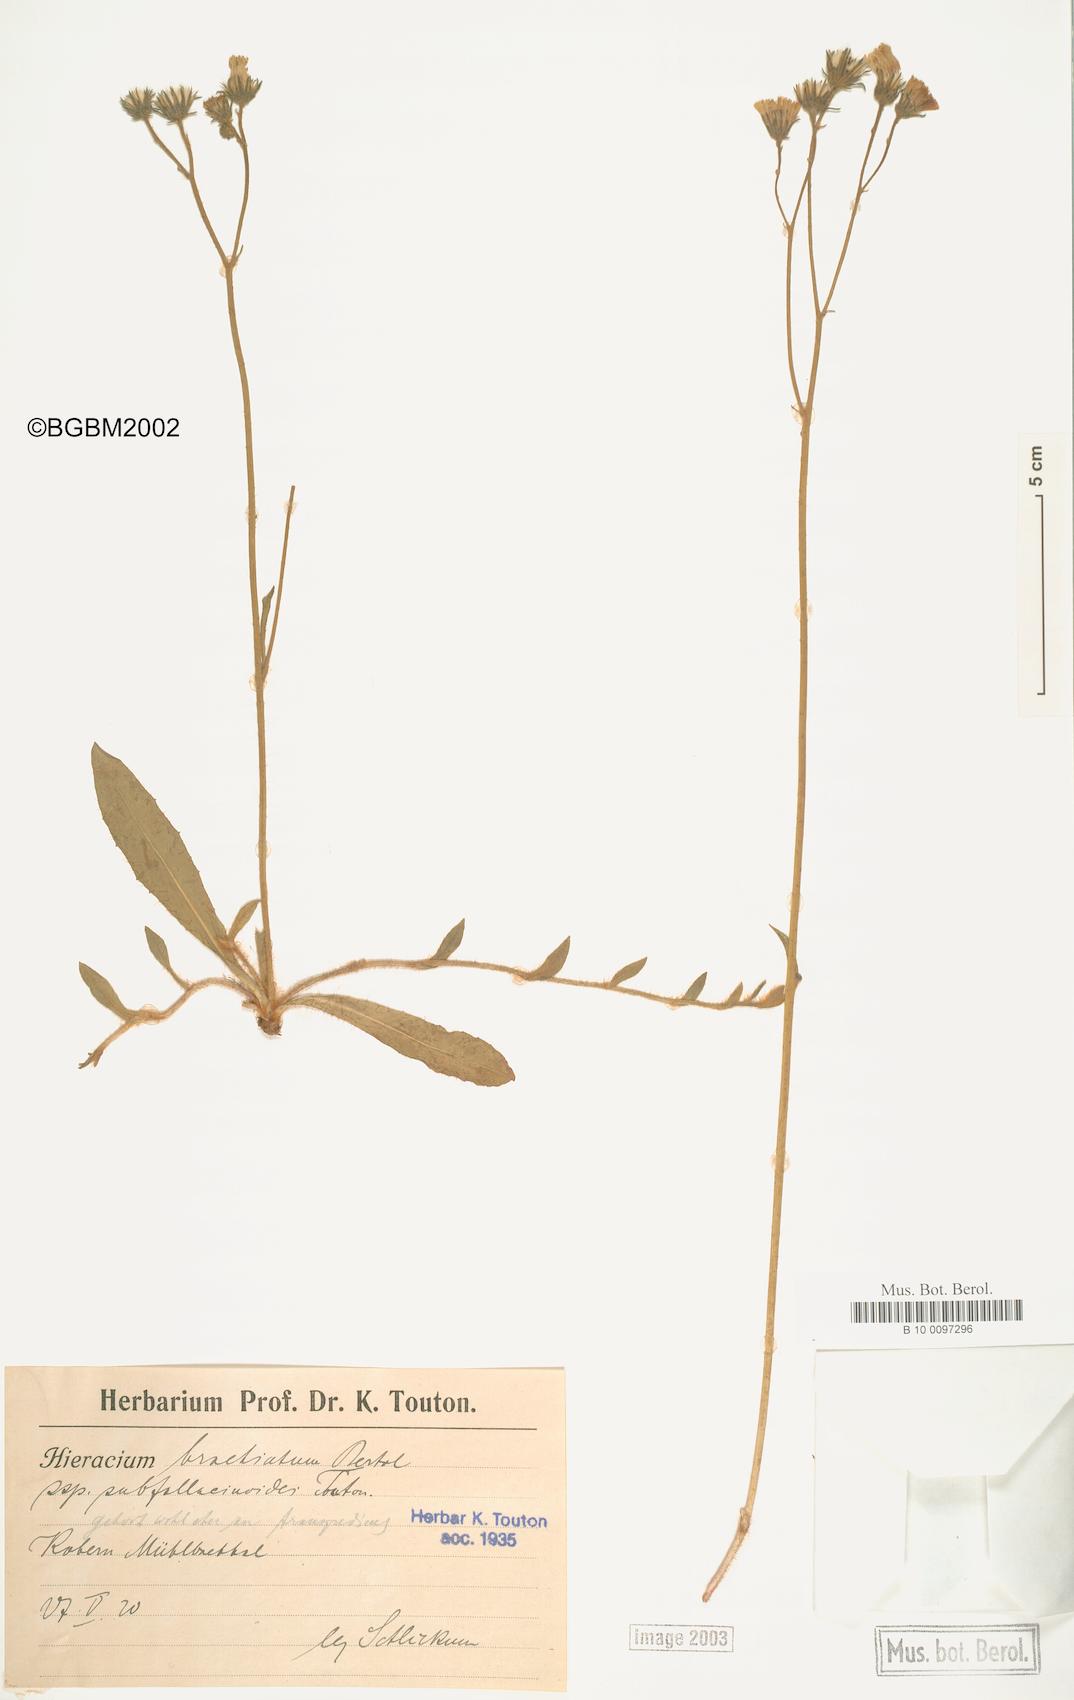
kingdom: Plantae
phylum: Tracheophyta
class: Magnoliopsida
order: Asterales
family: Asteraceae
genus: Pilosella
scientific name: Pilosella acutifolia
